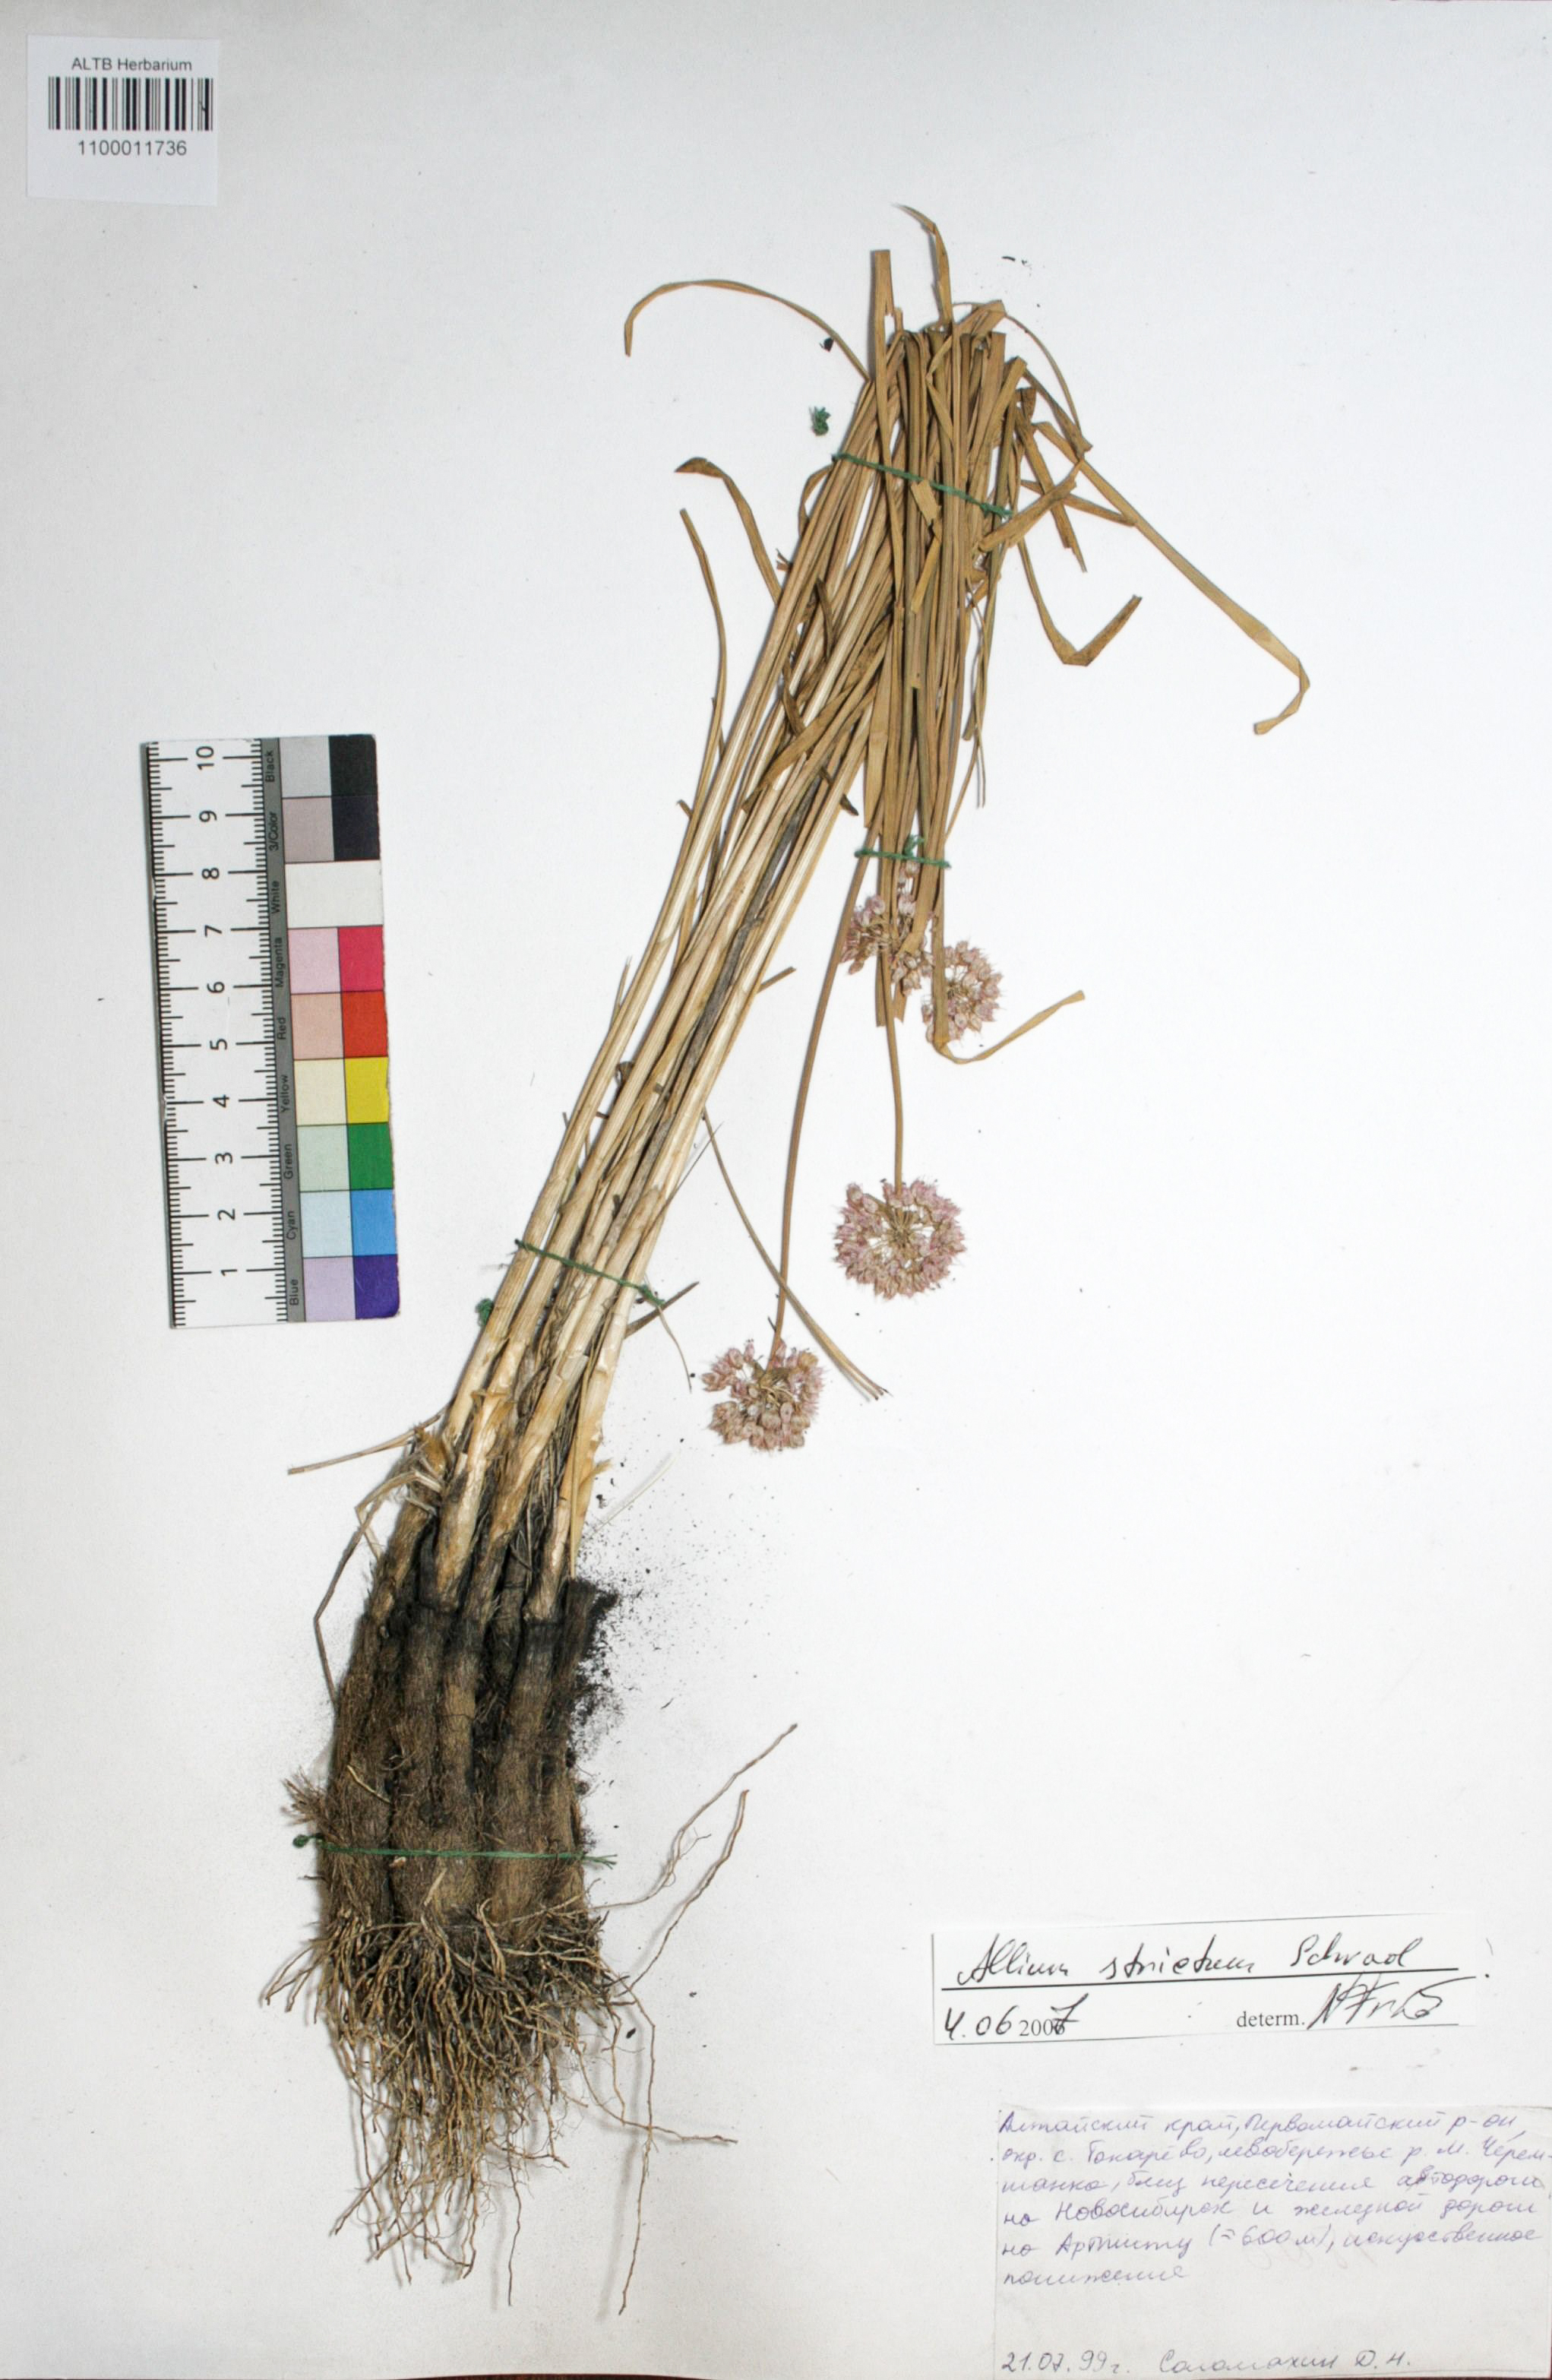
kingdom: Plantae
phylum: Tracheophyta
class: Liliopsida
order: Asparagales
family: Amaryllidaceae
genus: Allium
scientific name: Allium strictum
